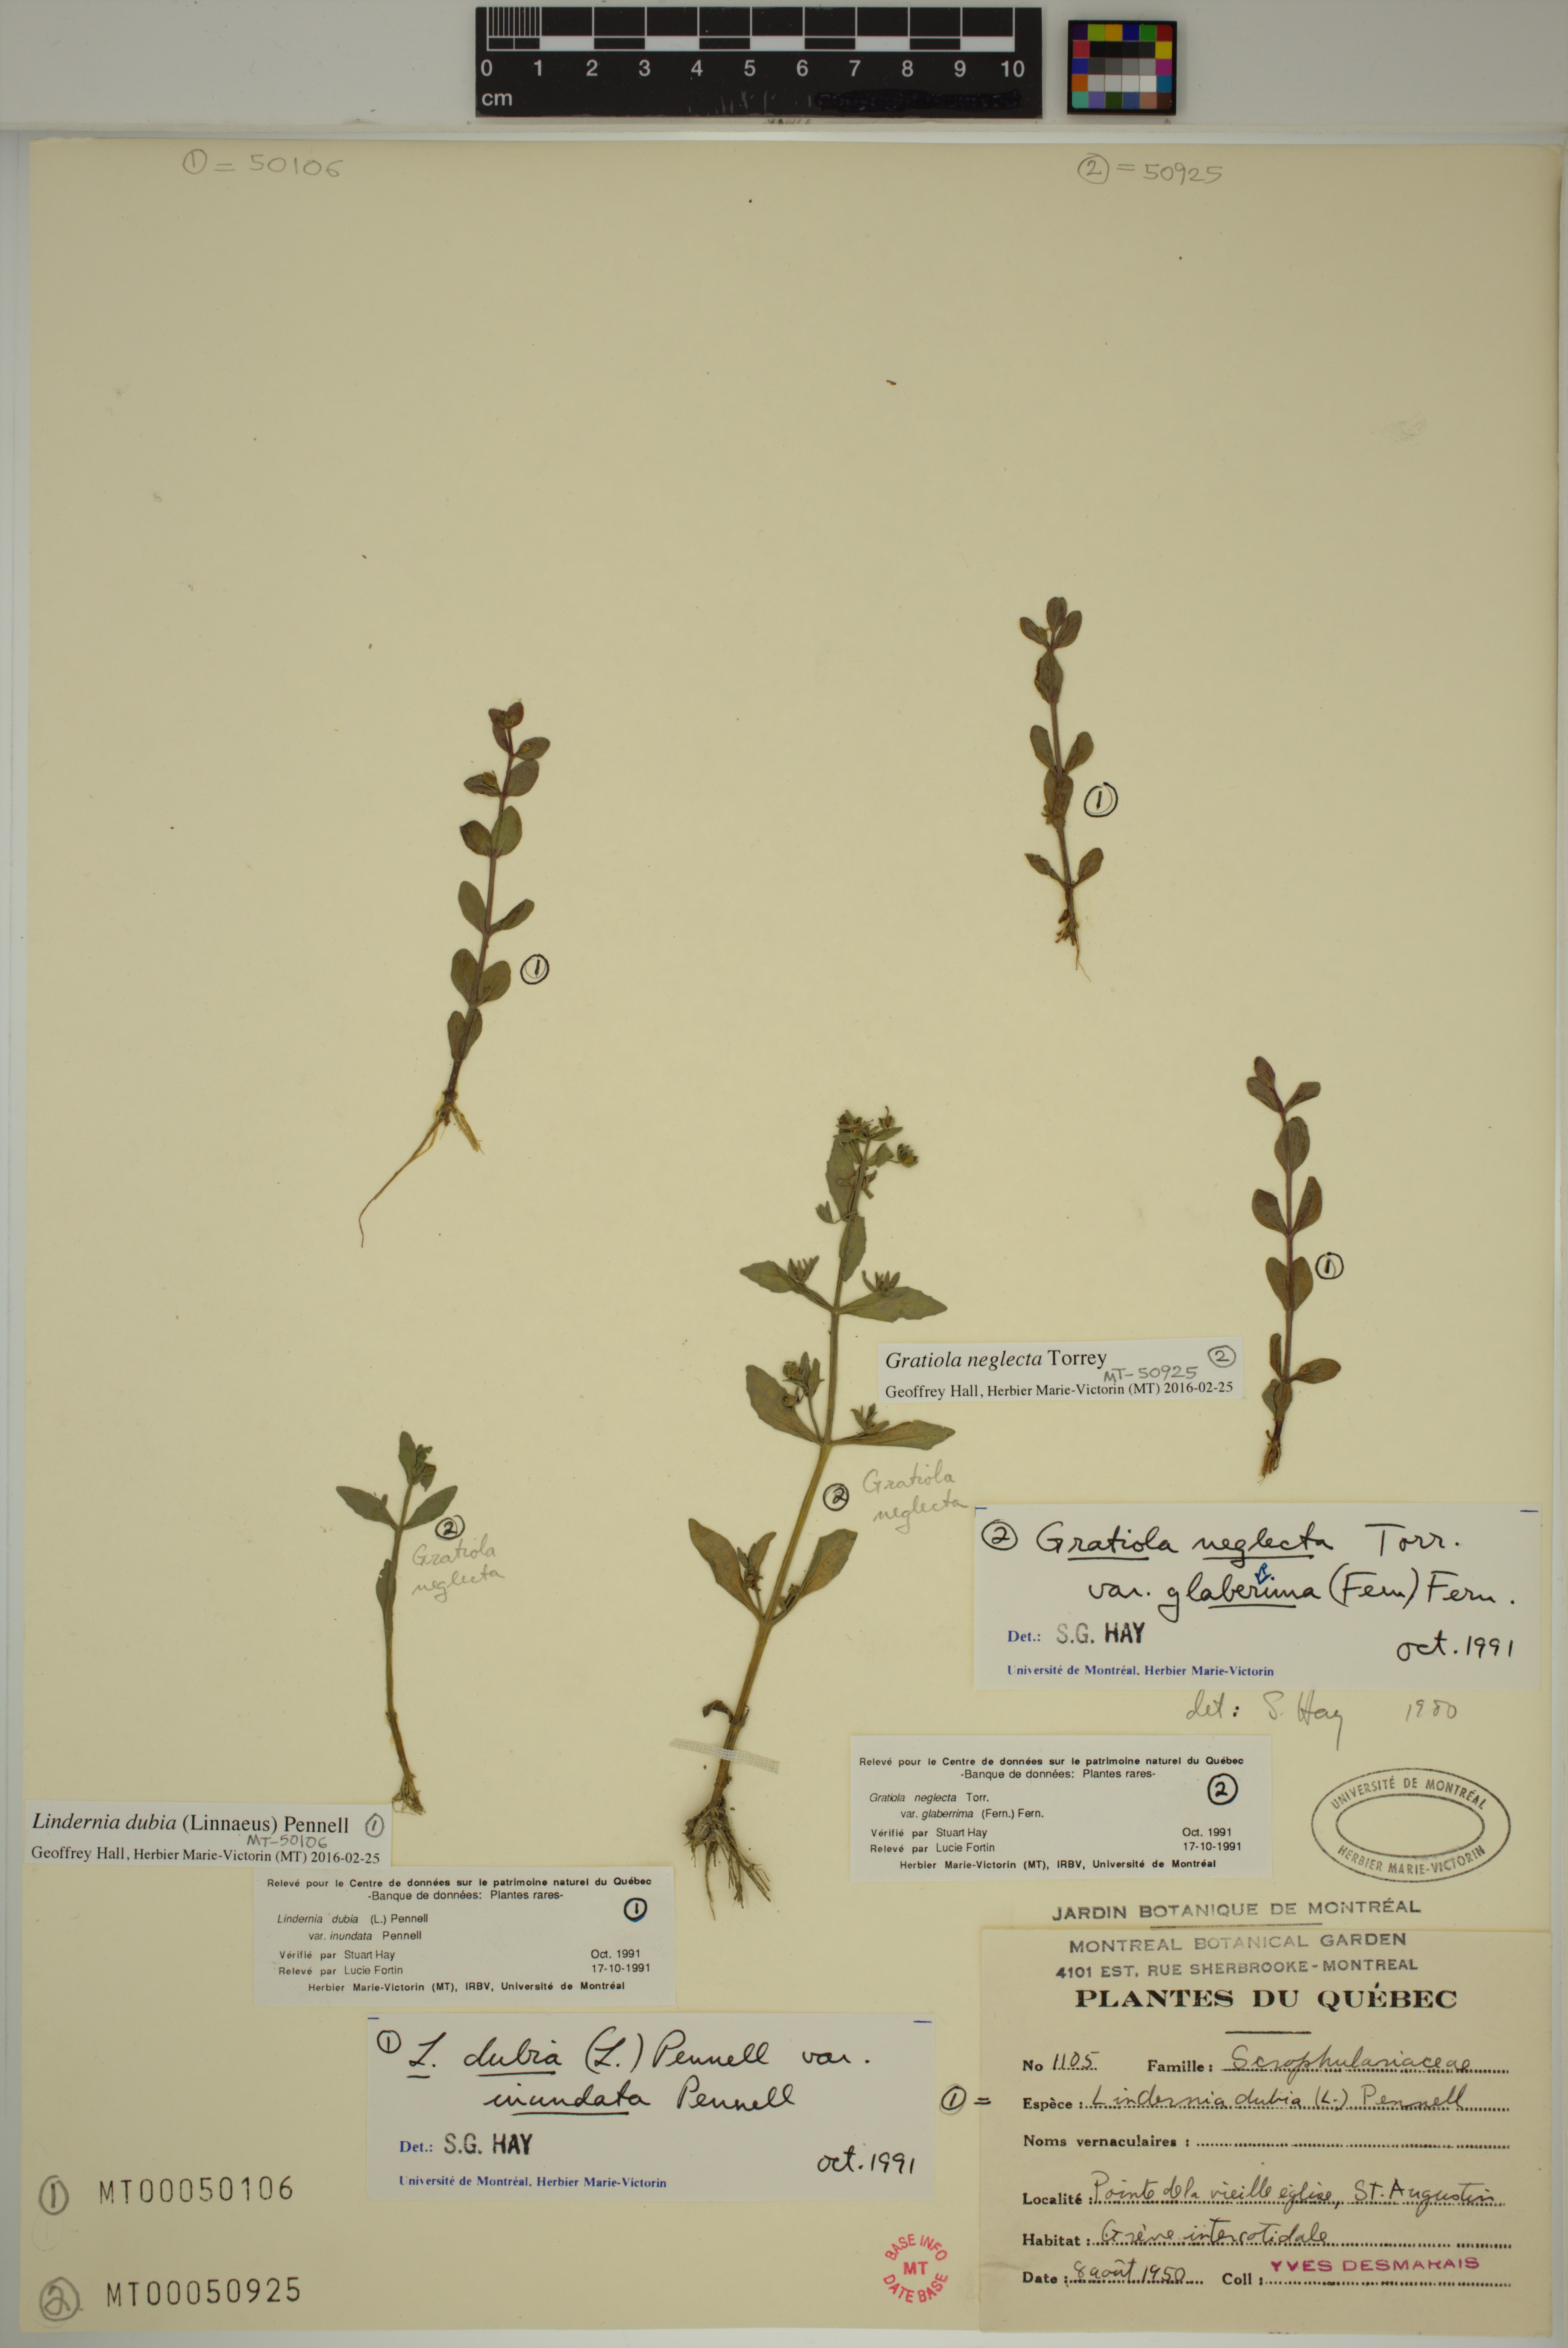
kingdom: Plantae
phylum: Tracheophyta
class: Magnoliopsida
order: Lamiales
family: Linderniaceae
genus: Lindernia
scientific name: Lindernia dubia
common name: Annual false pimpernel
